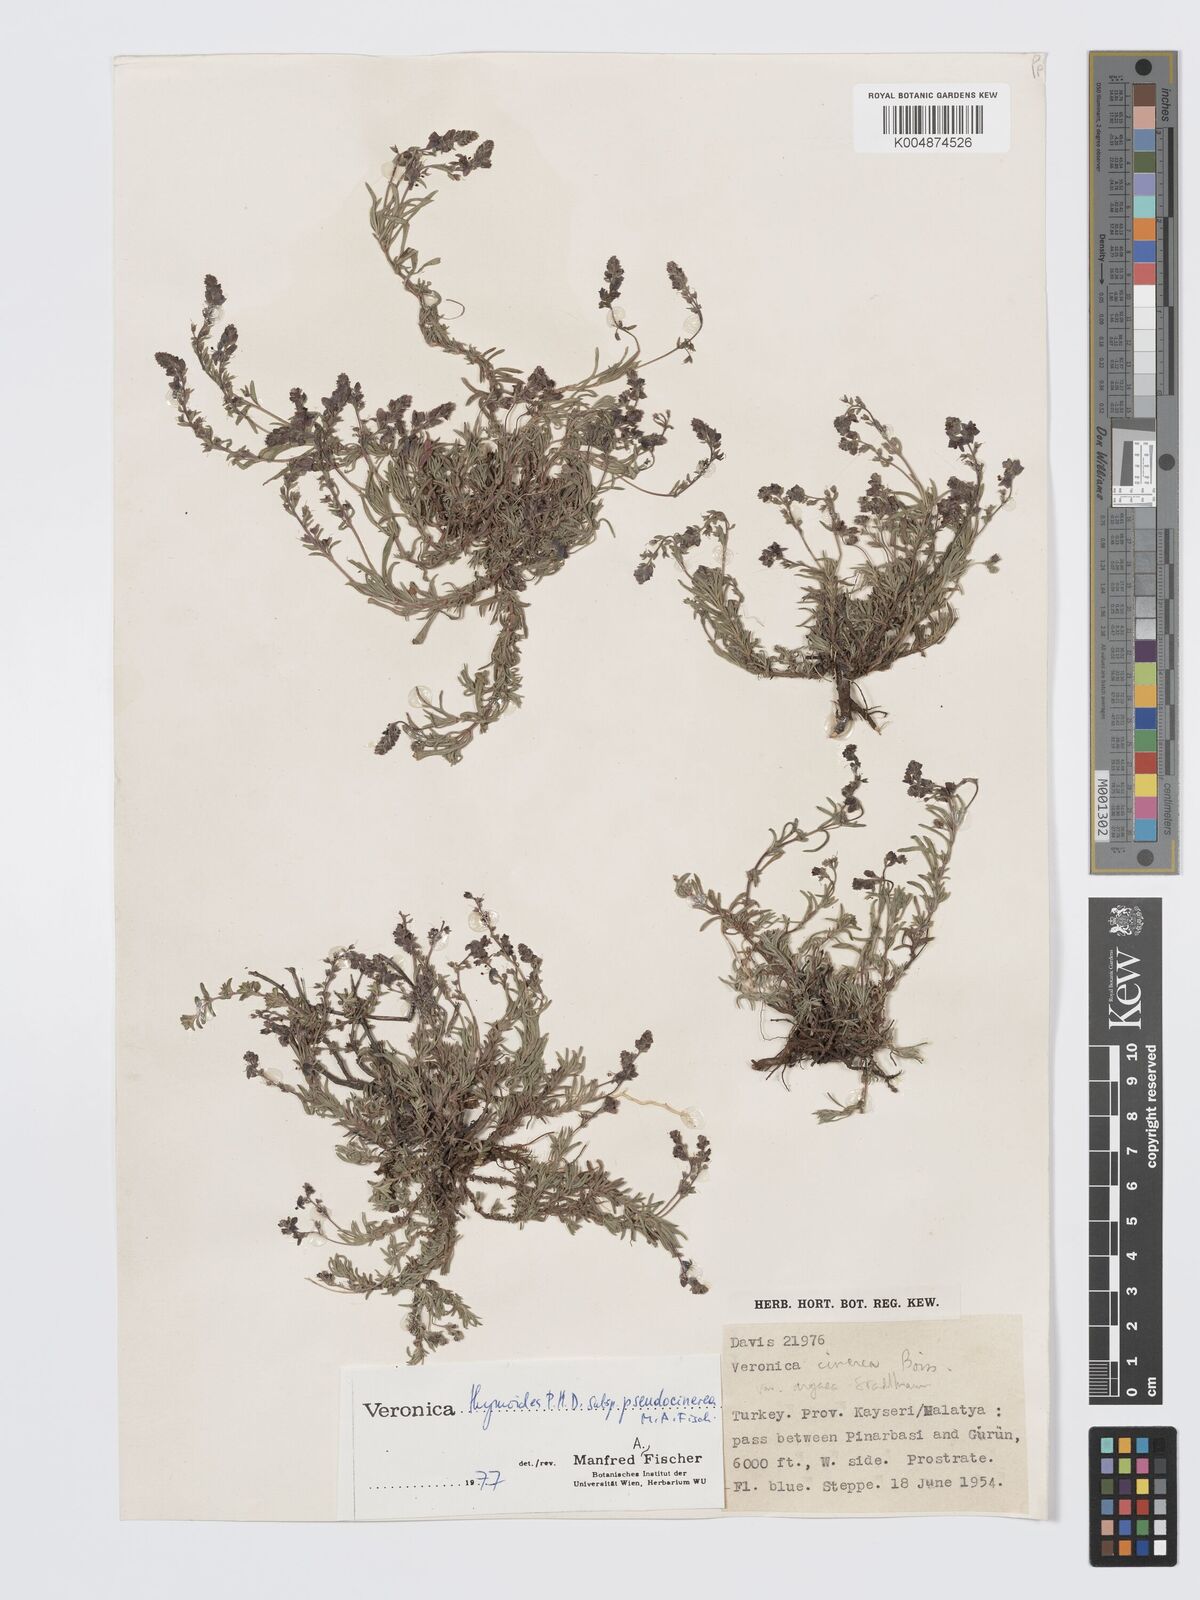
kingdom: Plantae
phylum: Tracheophyta
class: Magnoliopsida
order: Lamiales
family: Plantaginaceae
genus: Veronica
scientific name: Veronica thymoides
